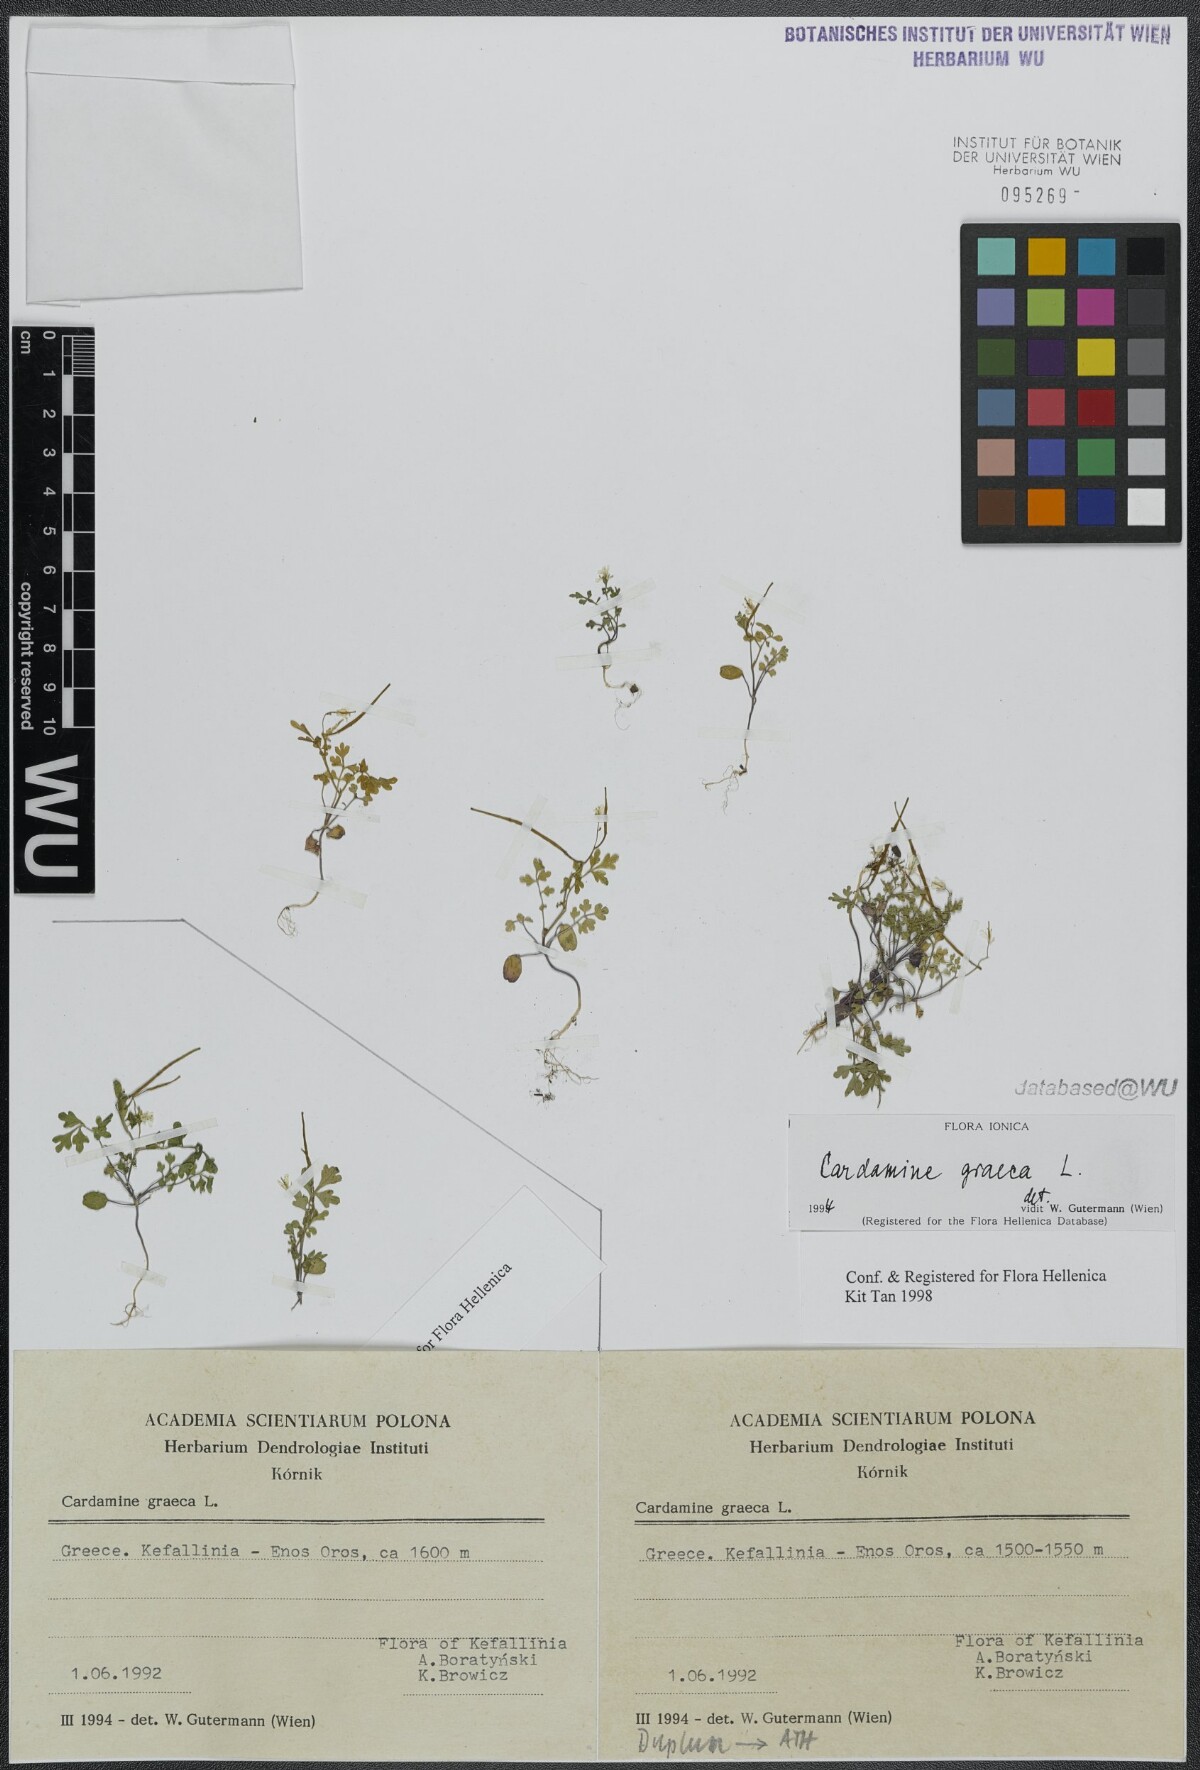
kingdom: Plantae
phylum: Tracheophyta
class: Magnoliopsida
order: Brassicales
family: Brassicaceae
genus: Cardamine
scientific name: Cardamine graeca
